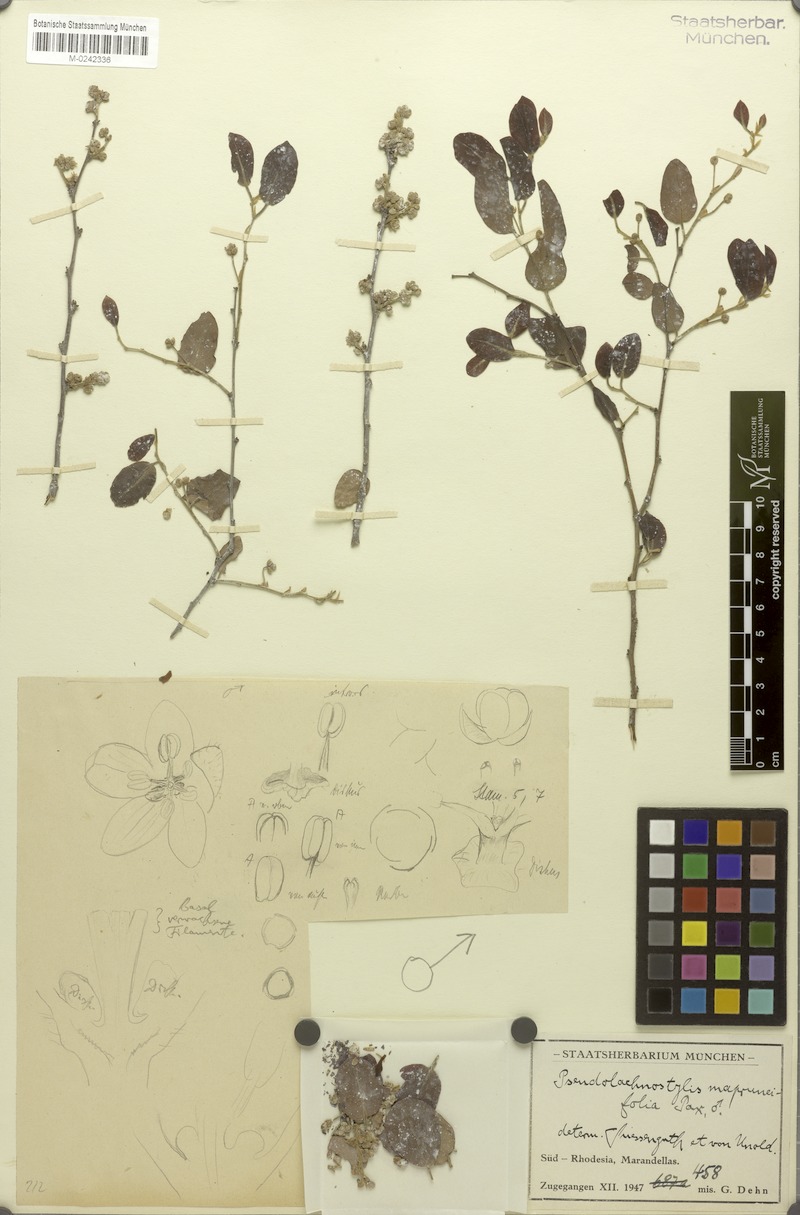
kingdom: Plantae
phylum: Tracheophyta
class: Magnoliopsida
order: Malpighiales
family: Phyllanthaceae
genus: Pseudolachnostylis
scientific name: Pseudolachnostylis maprouneifolia
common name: Kudu berry
